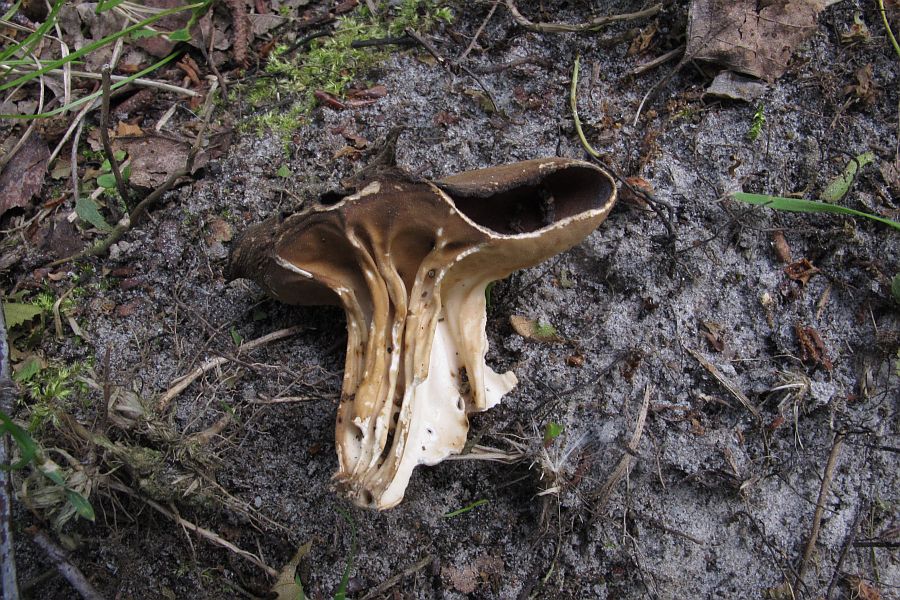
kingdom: Fungi
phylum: Ascomycota
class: Pezizomycetes
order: Pezizales
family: Helvellaceae
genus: Helvella
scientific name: Helvella acetabulum
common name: pokal-foldhat
